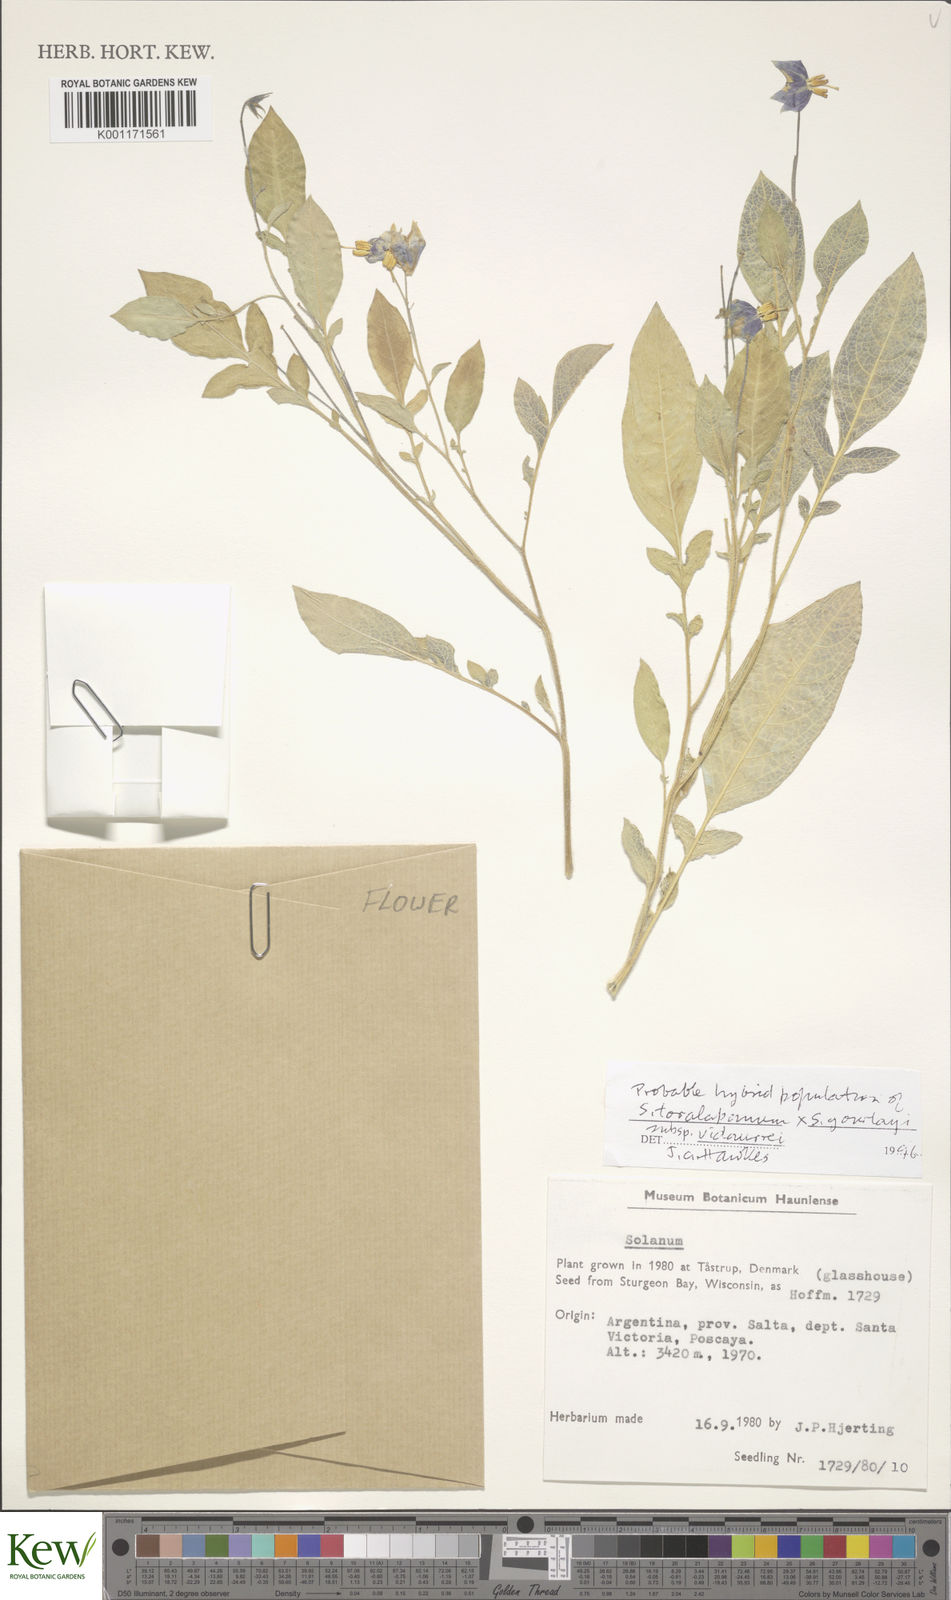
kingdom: Plantae
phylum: Tracheophyta
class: Magnoliopsida
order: Solanales
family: Solanaceae
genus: Solanum
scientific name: Solanum brevicaule
